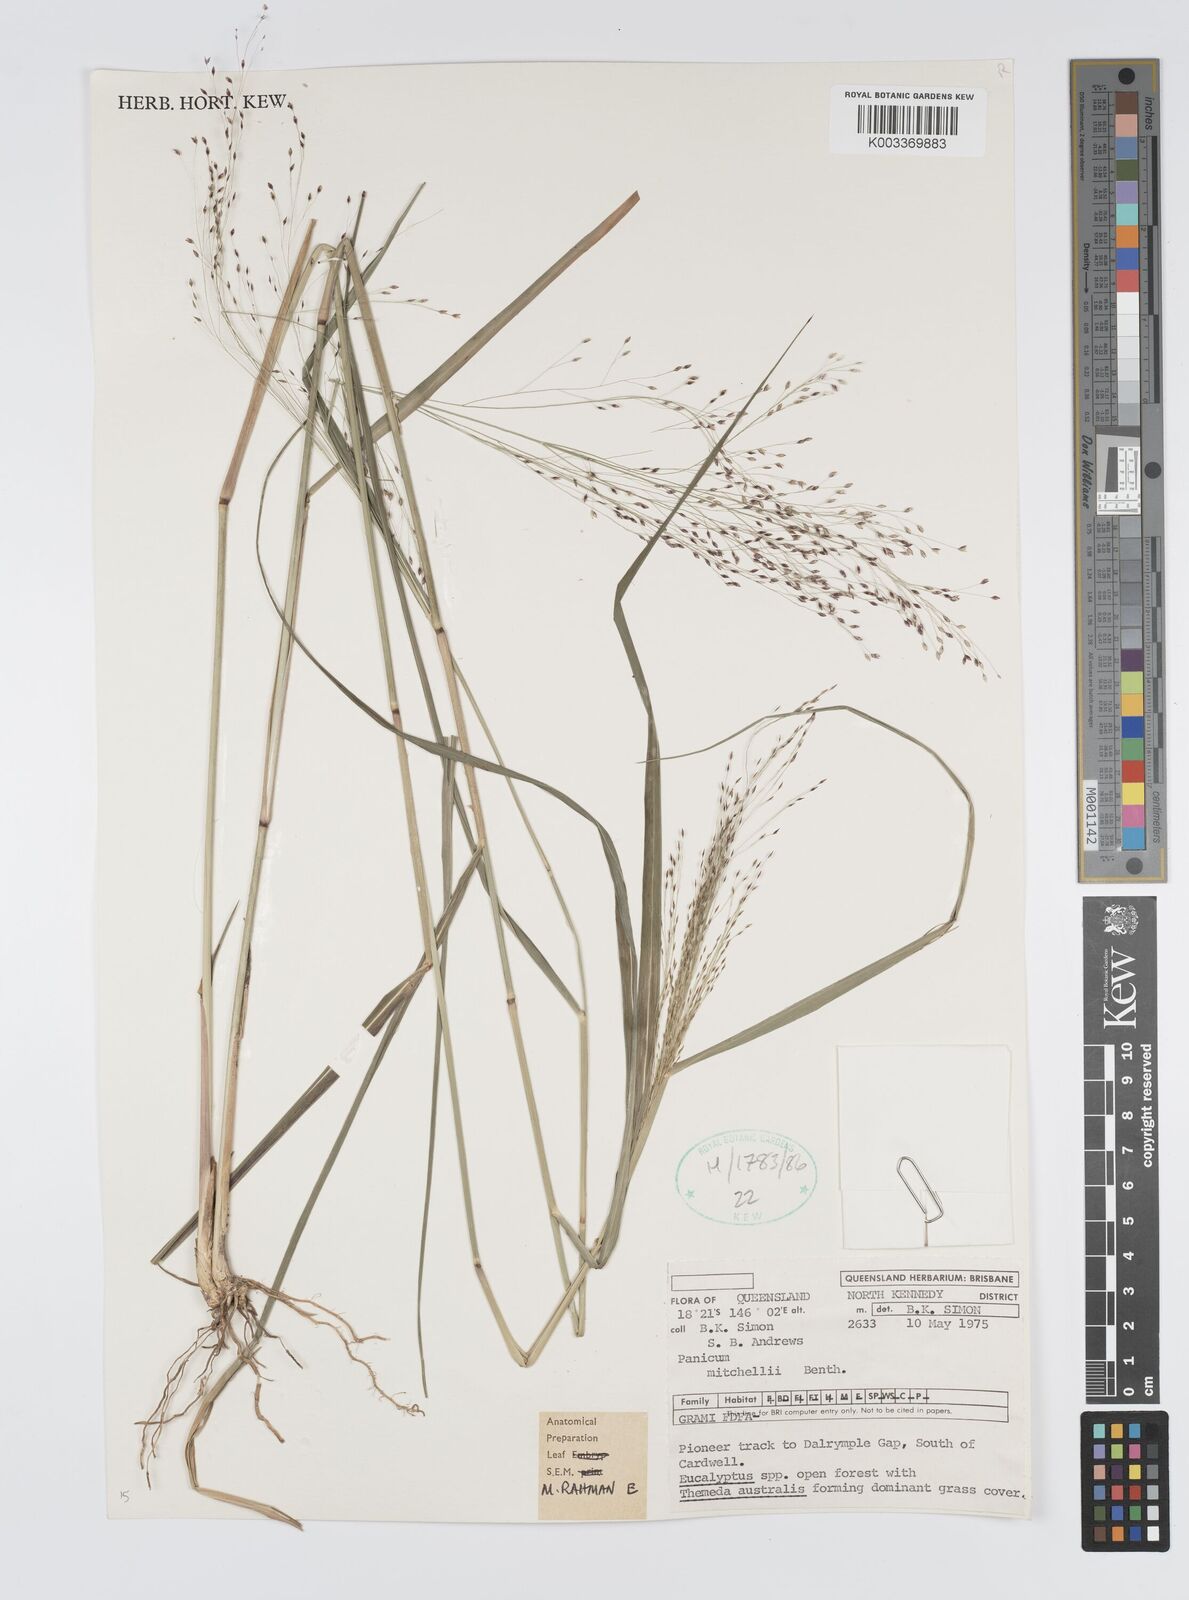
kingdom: Plantae
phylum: Tracheophyta
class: Liliopsida
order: Poales
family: Poaceae
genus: Panicum
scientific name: Panicum mitchellii
